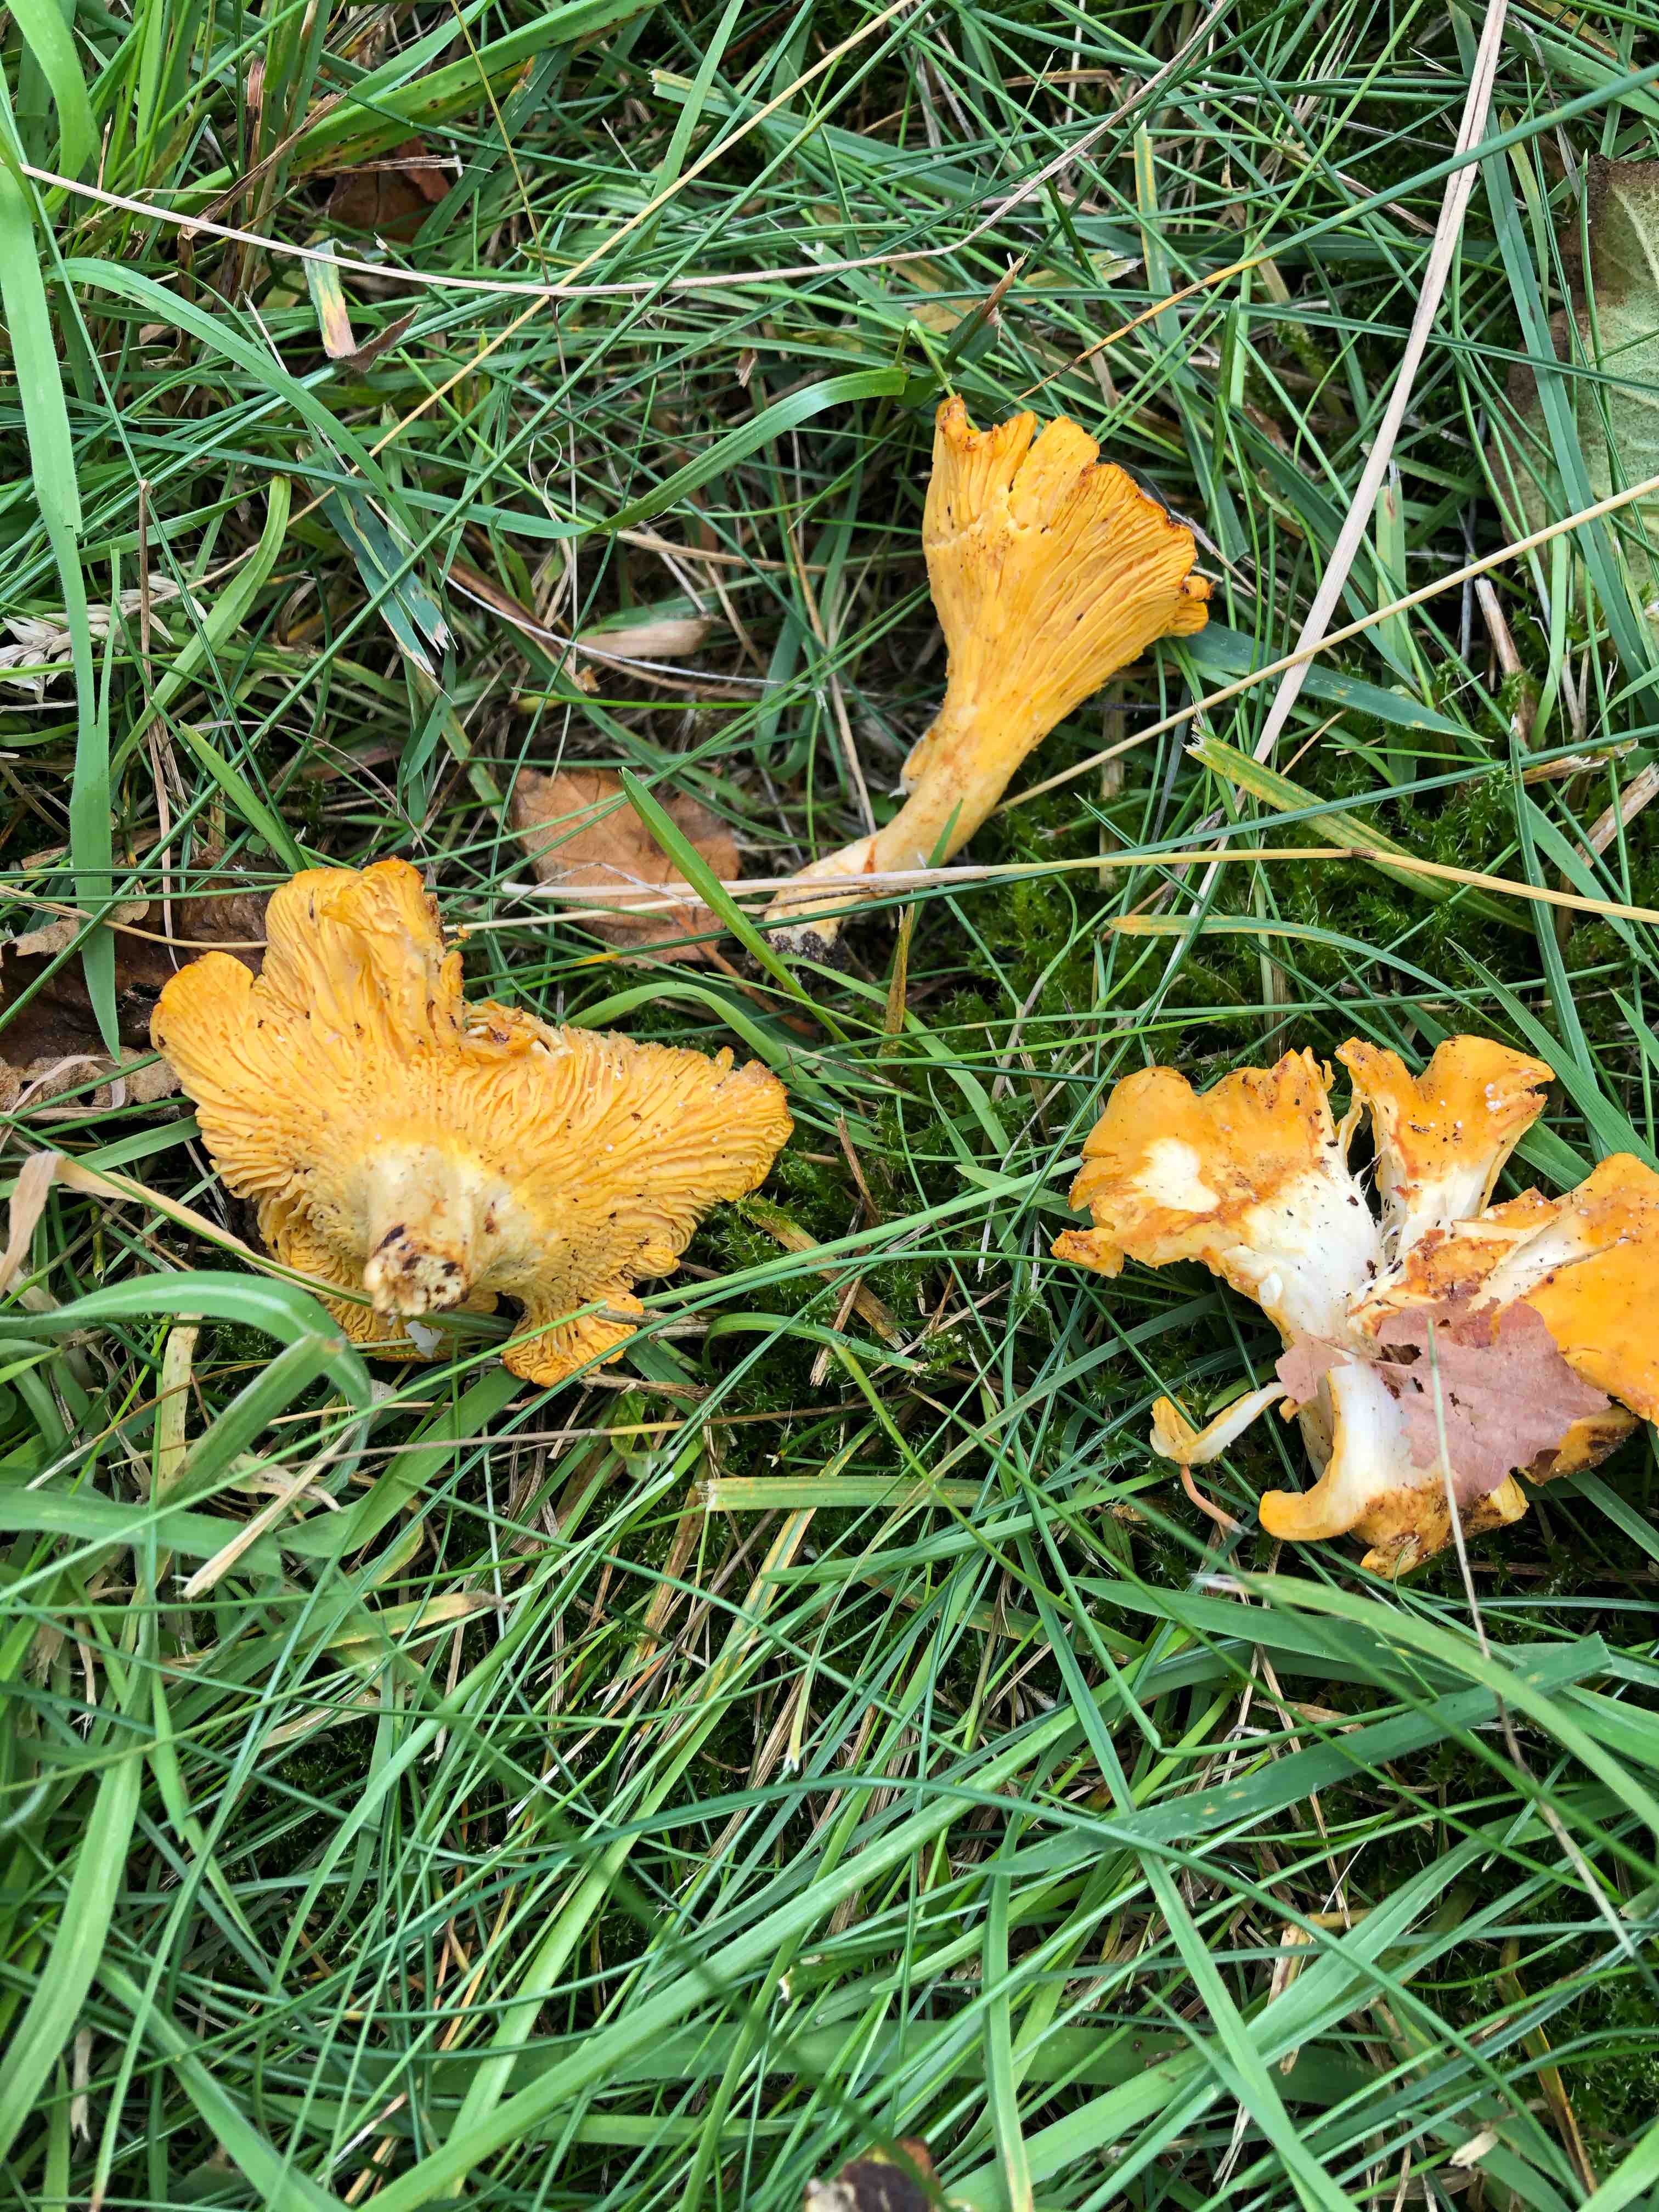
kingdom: Fungi
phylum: Basidiomycota
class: Agaricomycetes
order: Cantharellales
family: Hydnaceae
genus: Cantharellus
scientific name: Cantharellus cibarius
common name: almindelig kantarel
